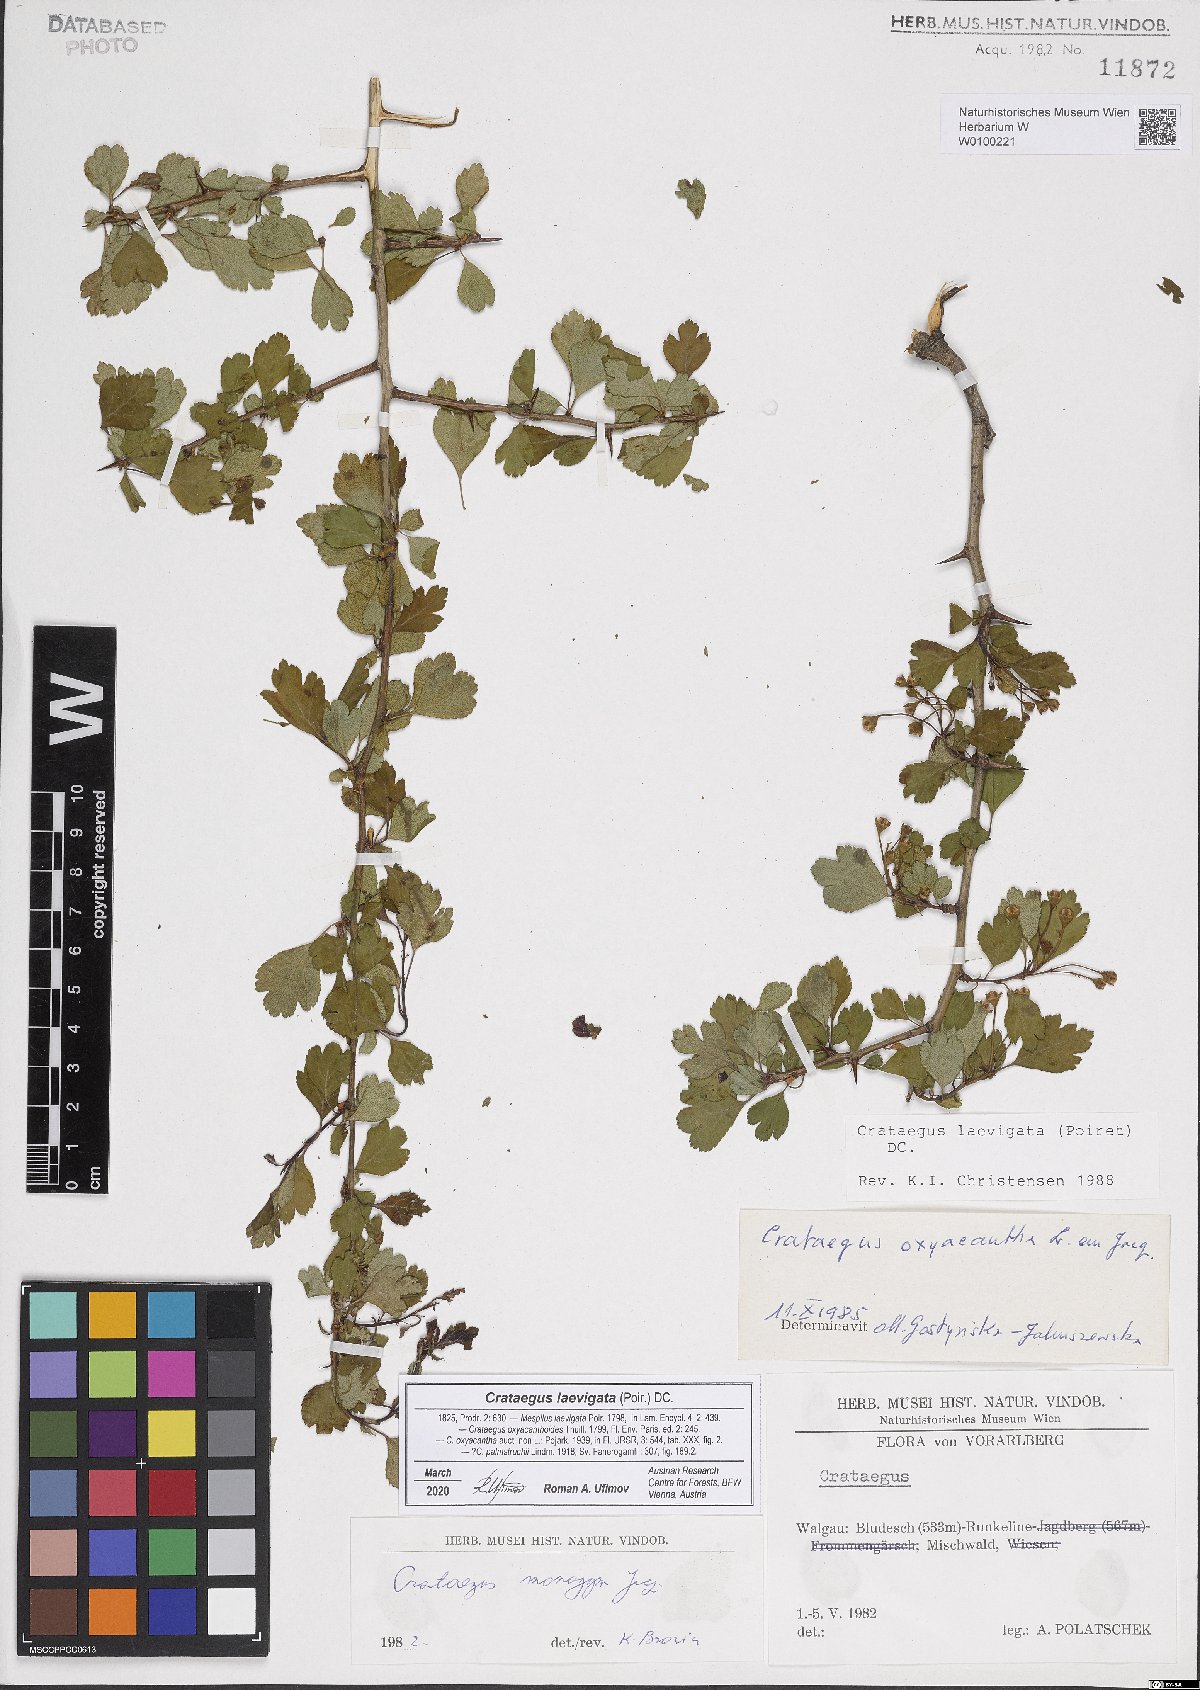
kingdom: Plantae
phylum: Tracheophyta
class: Magnoliopsida
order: Rosales
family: Rosaceae
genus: Crataegus
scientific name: Crataegus laevigata
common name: Midland hawthorn
